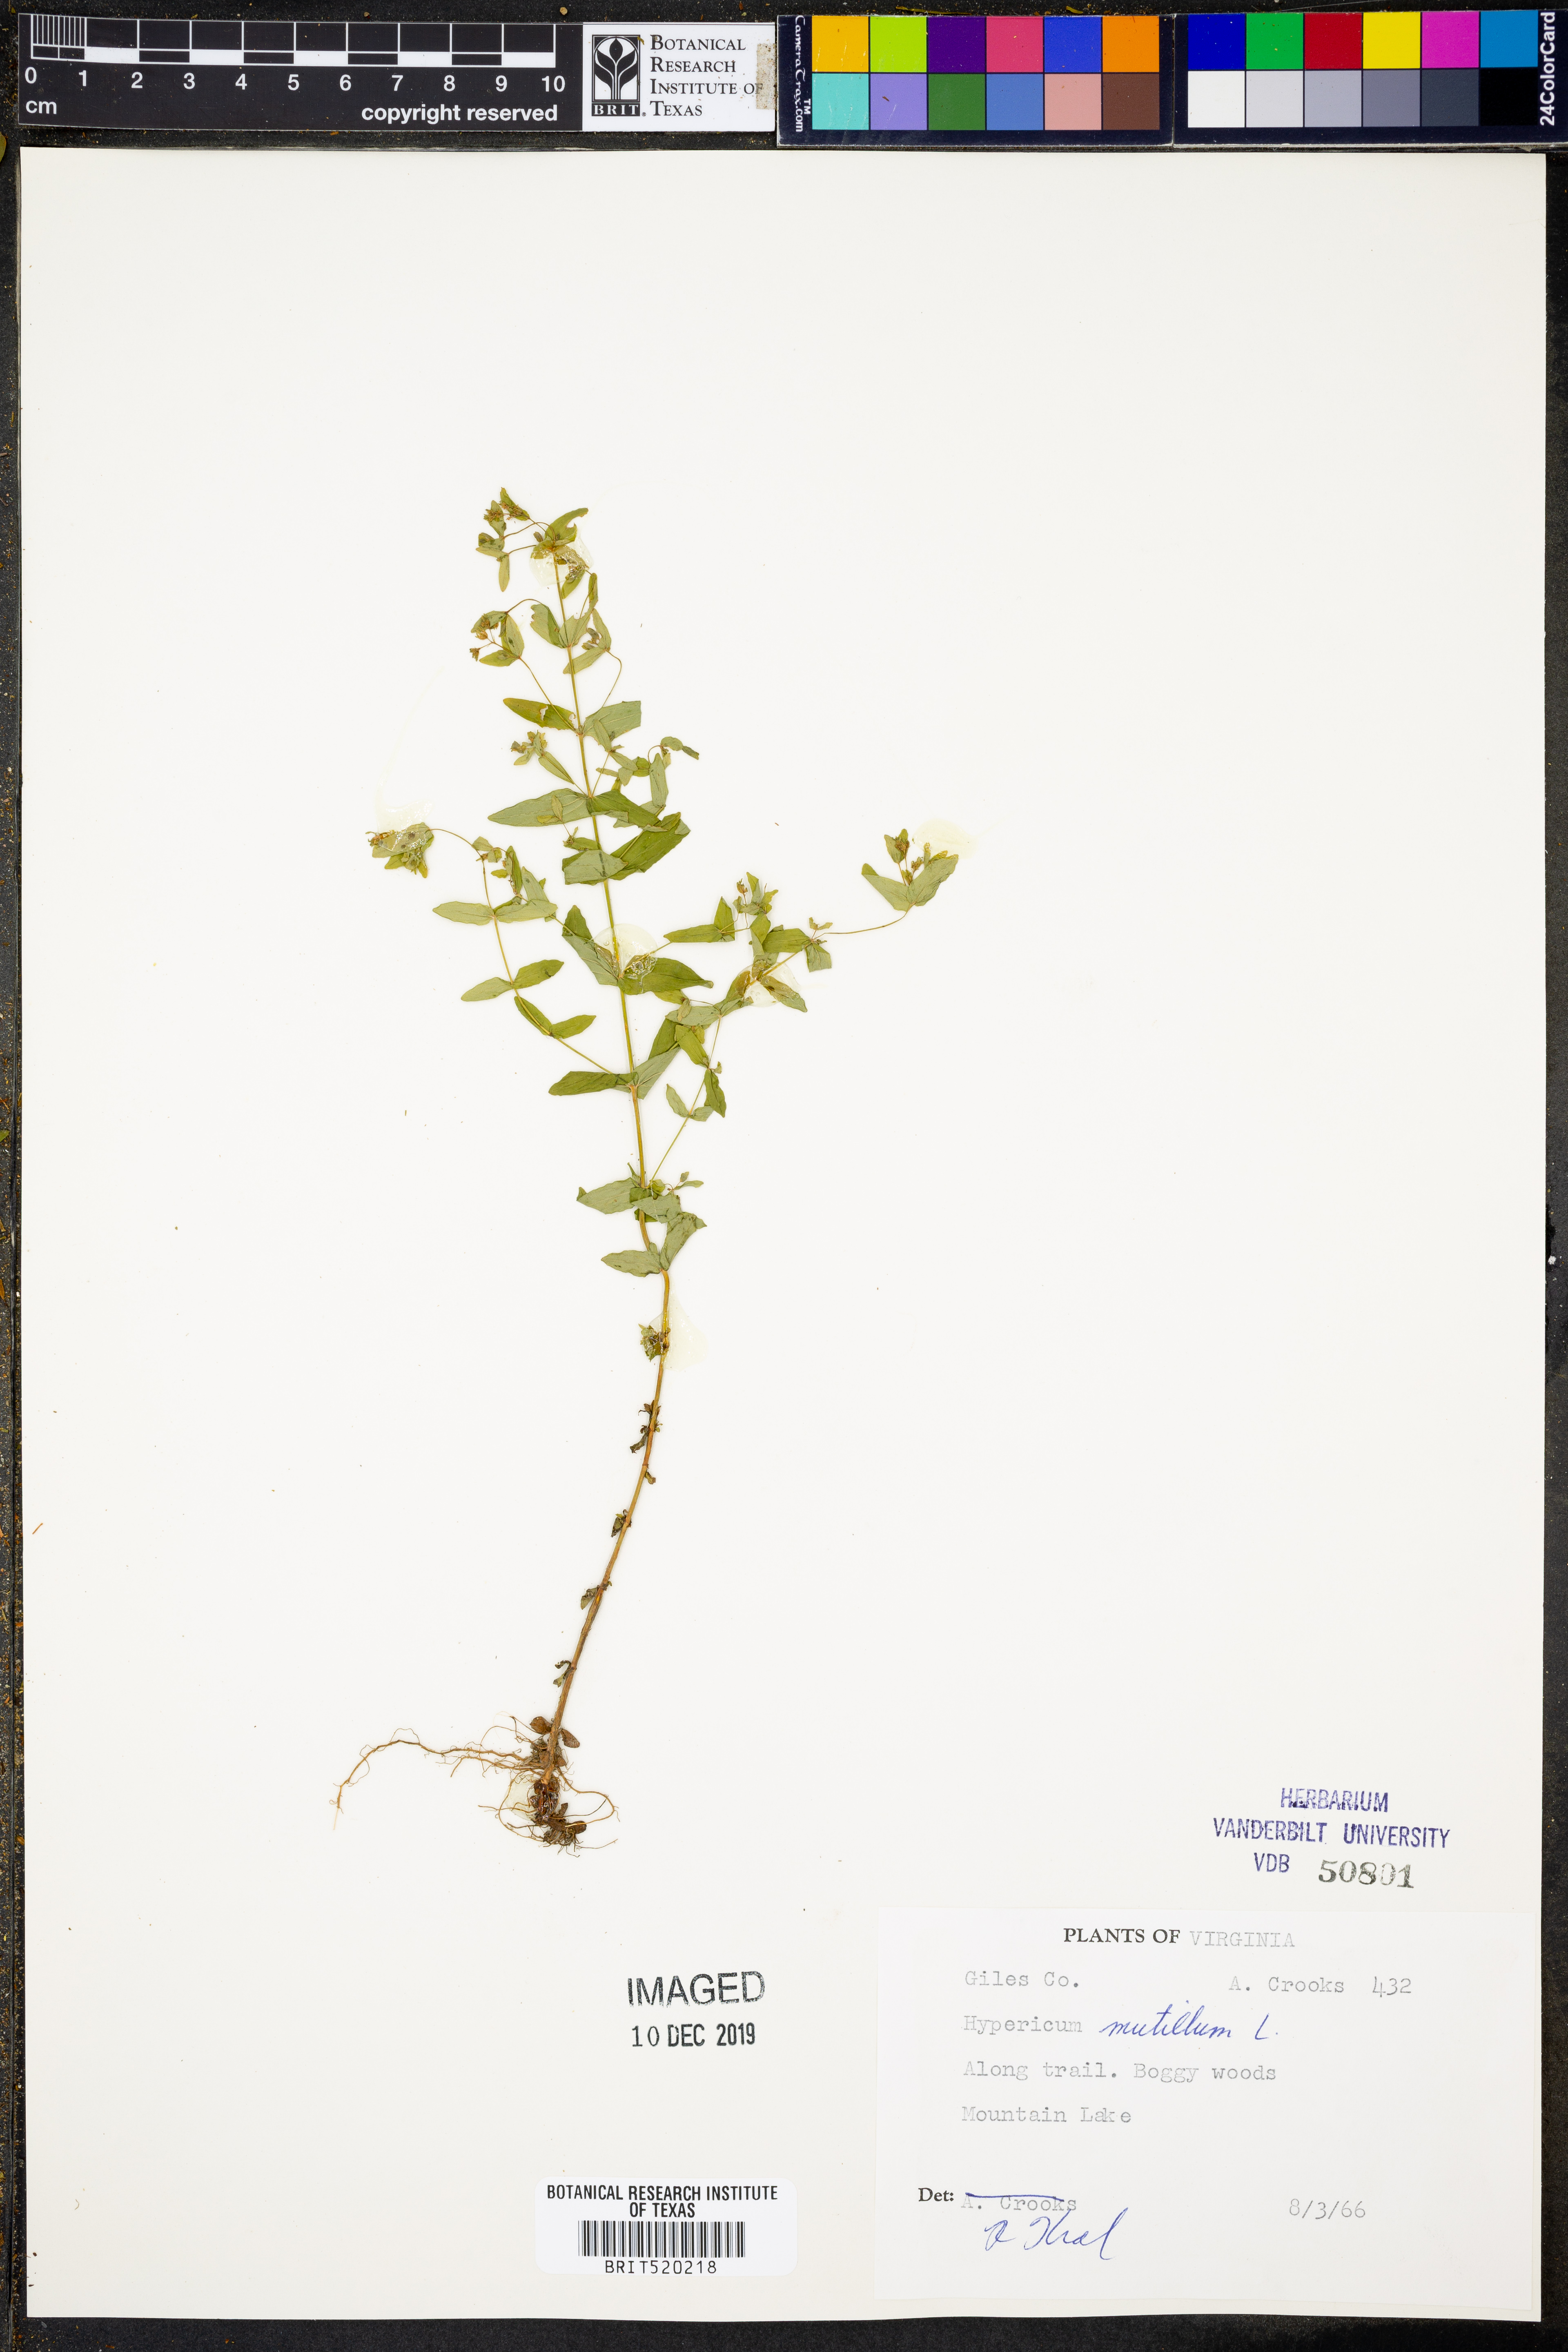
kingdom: Plantae
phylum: Tracheophyta
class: Magnoliopsida
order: Malpighiales
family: Hypericaceae
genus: Hypericum
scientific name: Hypericum mutilum
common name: Dwarf st. john's-wort
